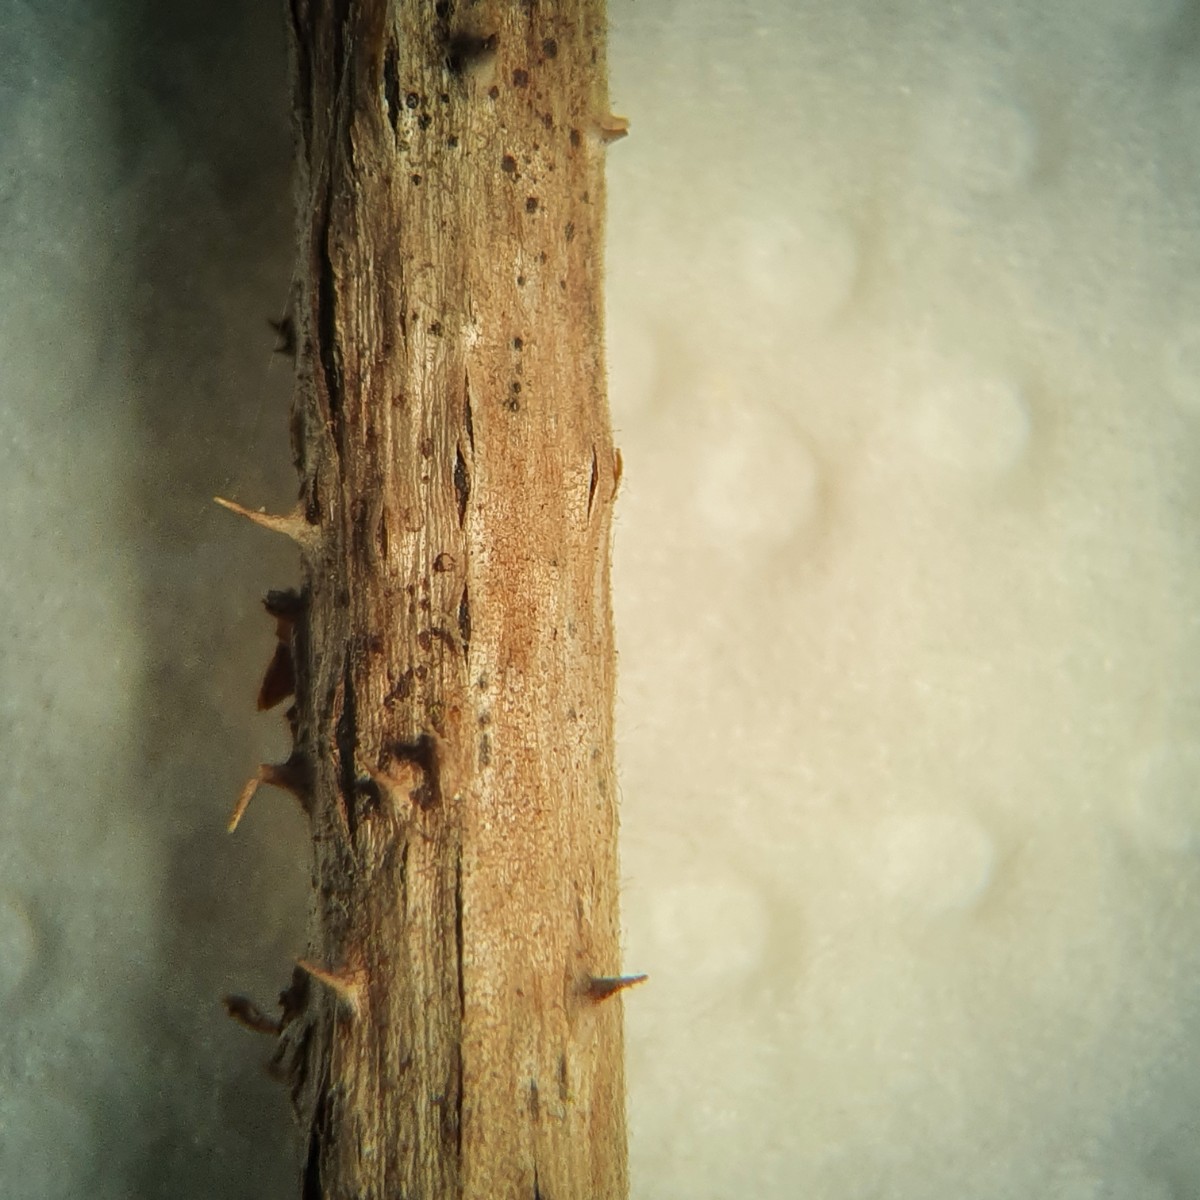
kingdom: Fungi
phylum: Ascomycota
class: Dothideomycetes
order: Botryosphaeriales
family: Botryosphaeriaceae
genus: Diplodia
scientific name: Diplodia rubi
